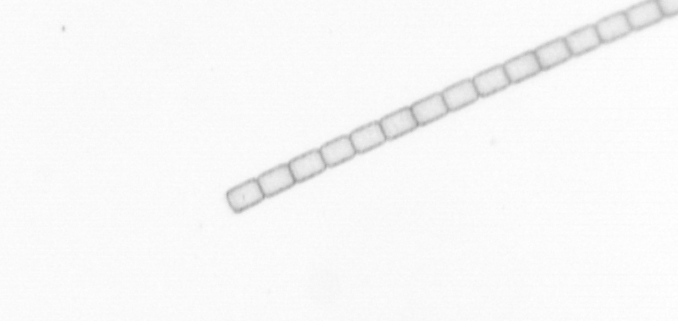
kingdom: Chromista
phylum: Ochrophyta
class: Bacillariophyceae
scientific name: Bacillariophyceae
